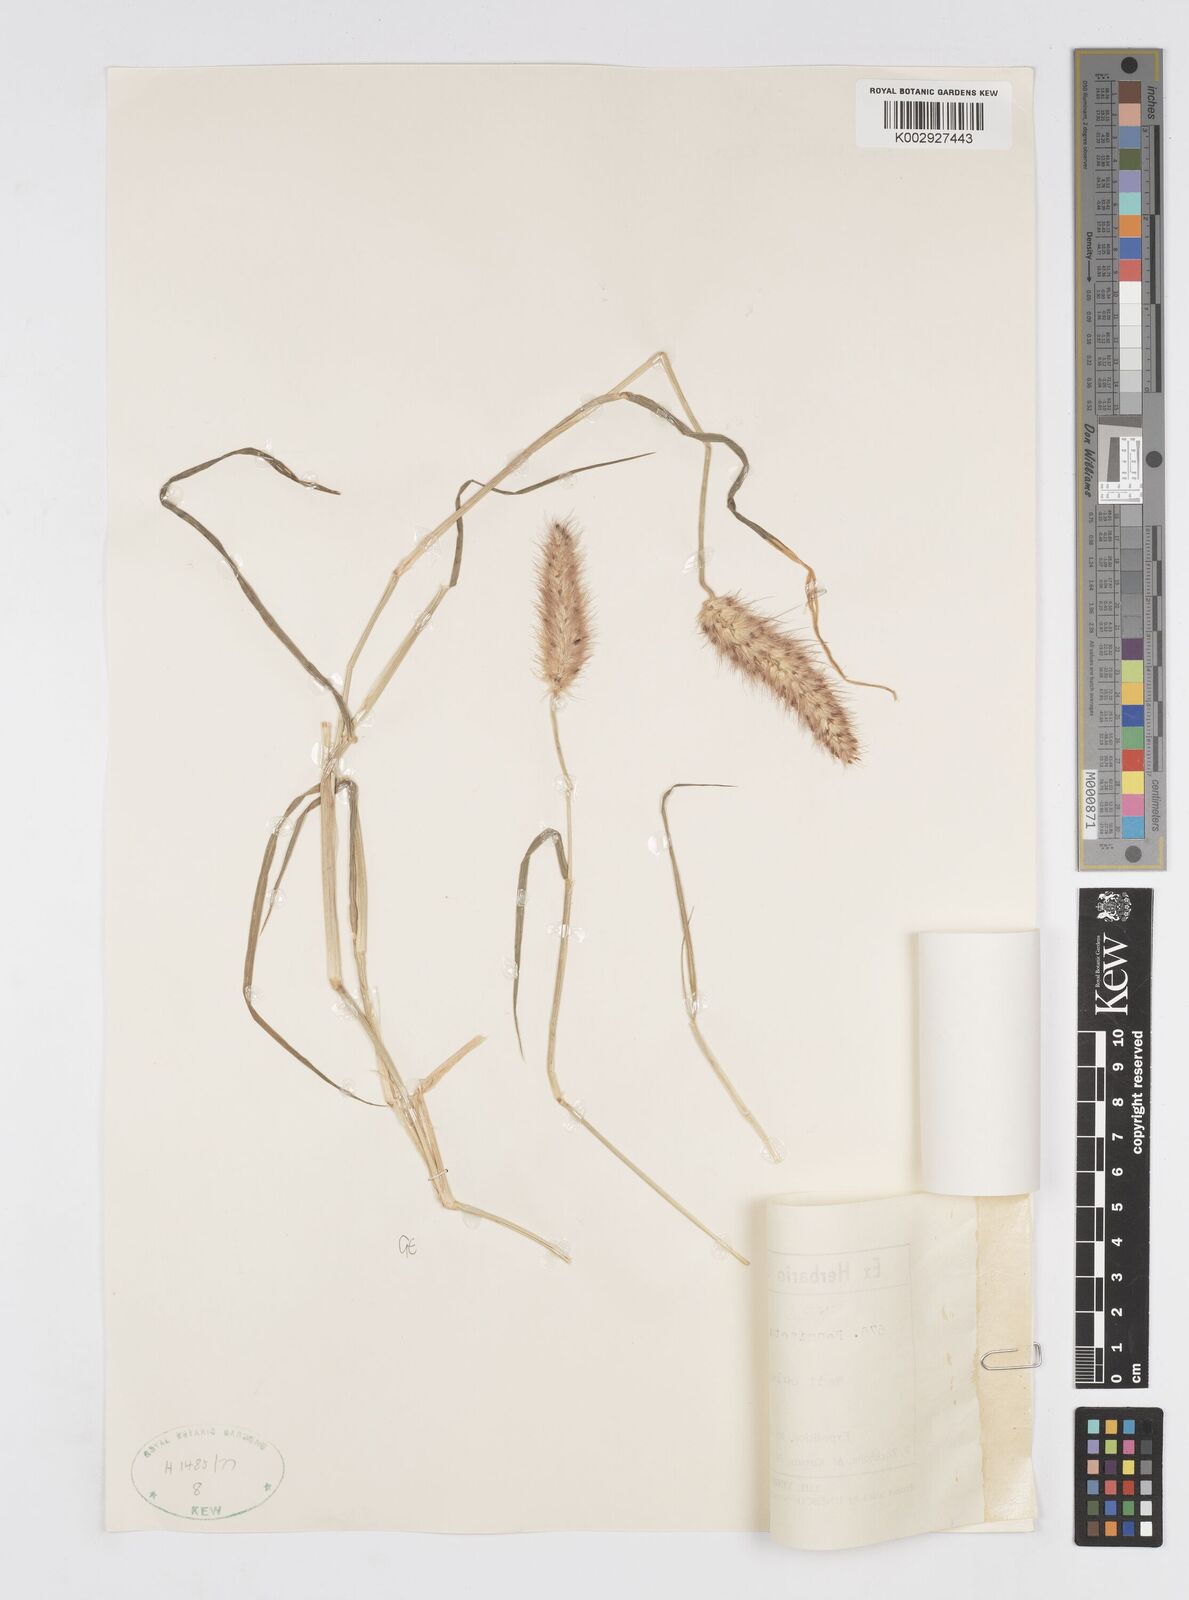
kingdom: Plantae
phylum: Tracheophyta
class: Liliopsida
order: Poales
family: Poaceae
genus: Cenchrus
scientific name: Cenchrus ciliaris
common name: Buffelgrass
